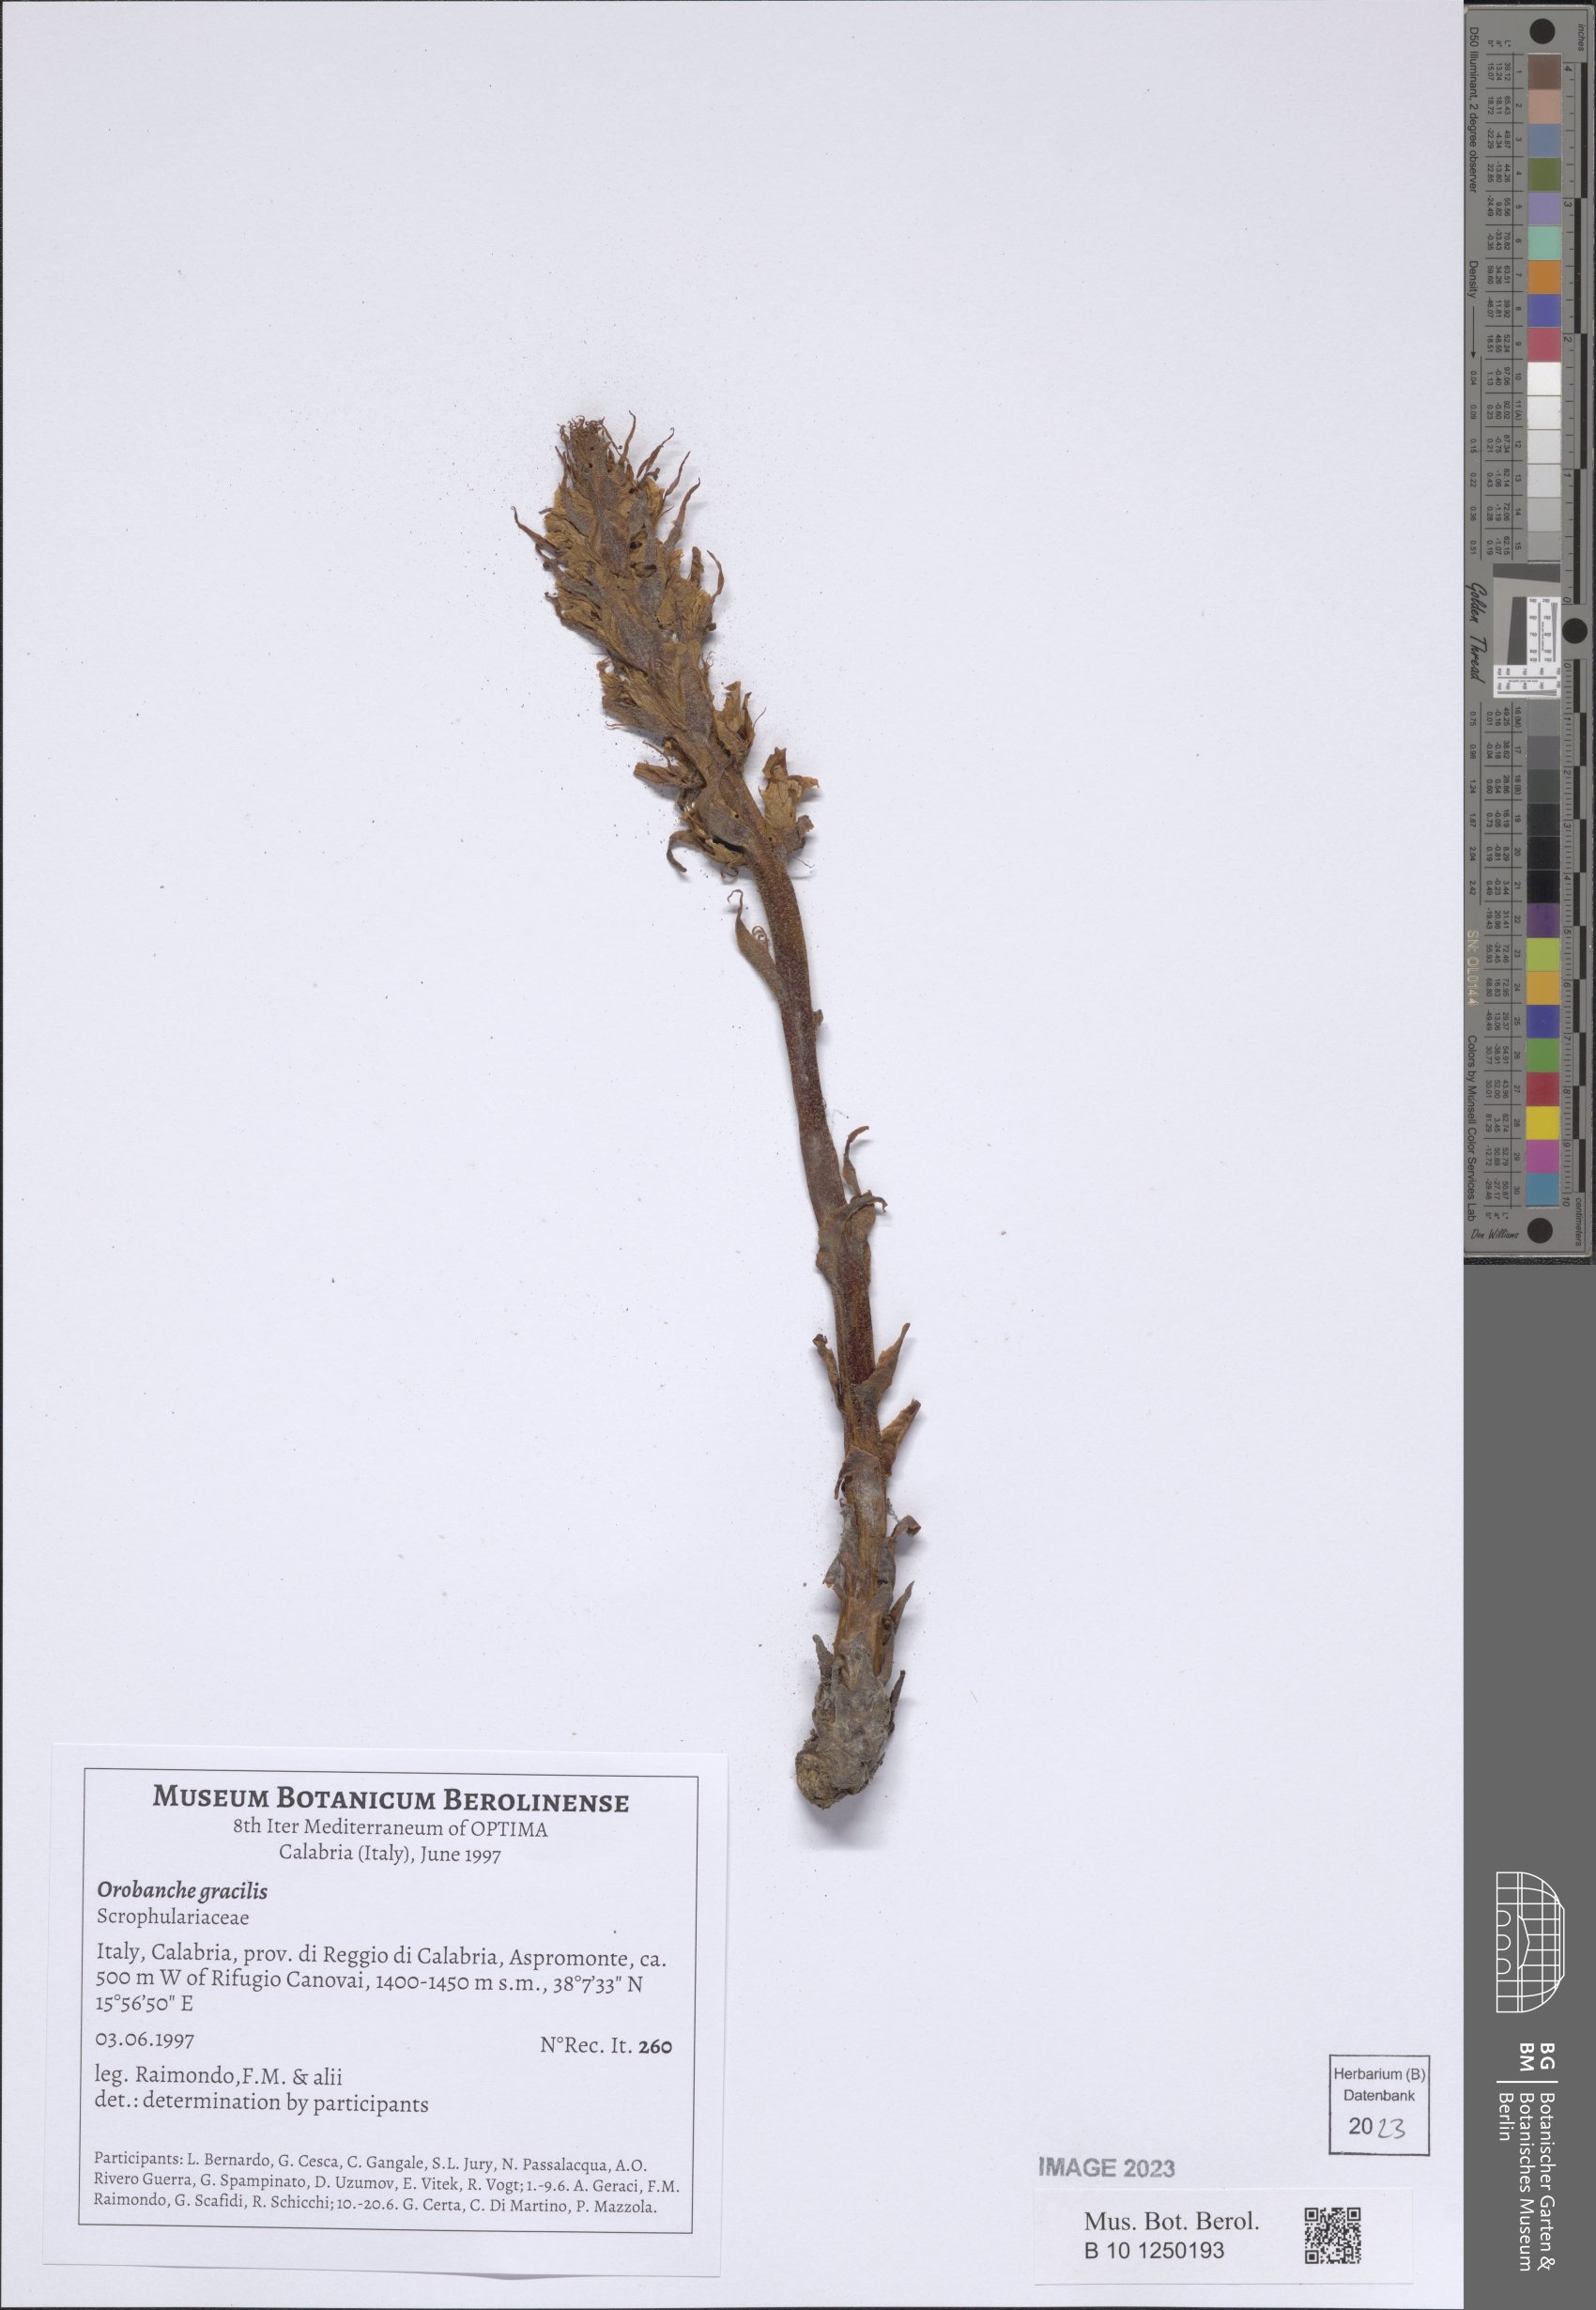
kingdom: Plantae
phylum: Tracheophyta
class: Magnoliopsida
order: Lamiales
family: Orobanchaceae
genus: Orobanche
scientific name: Orobanche gracilis
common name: Slender broomrape
